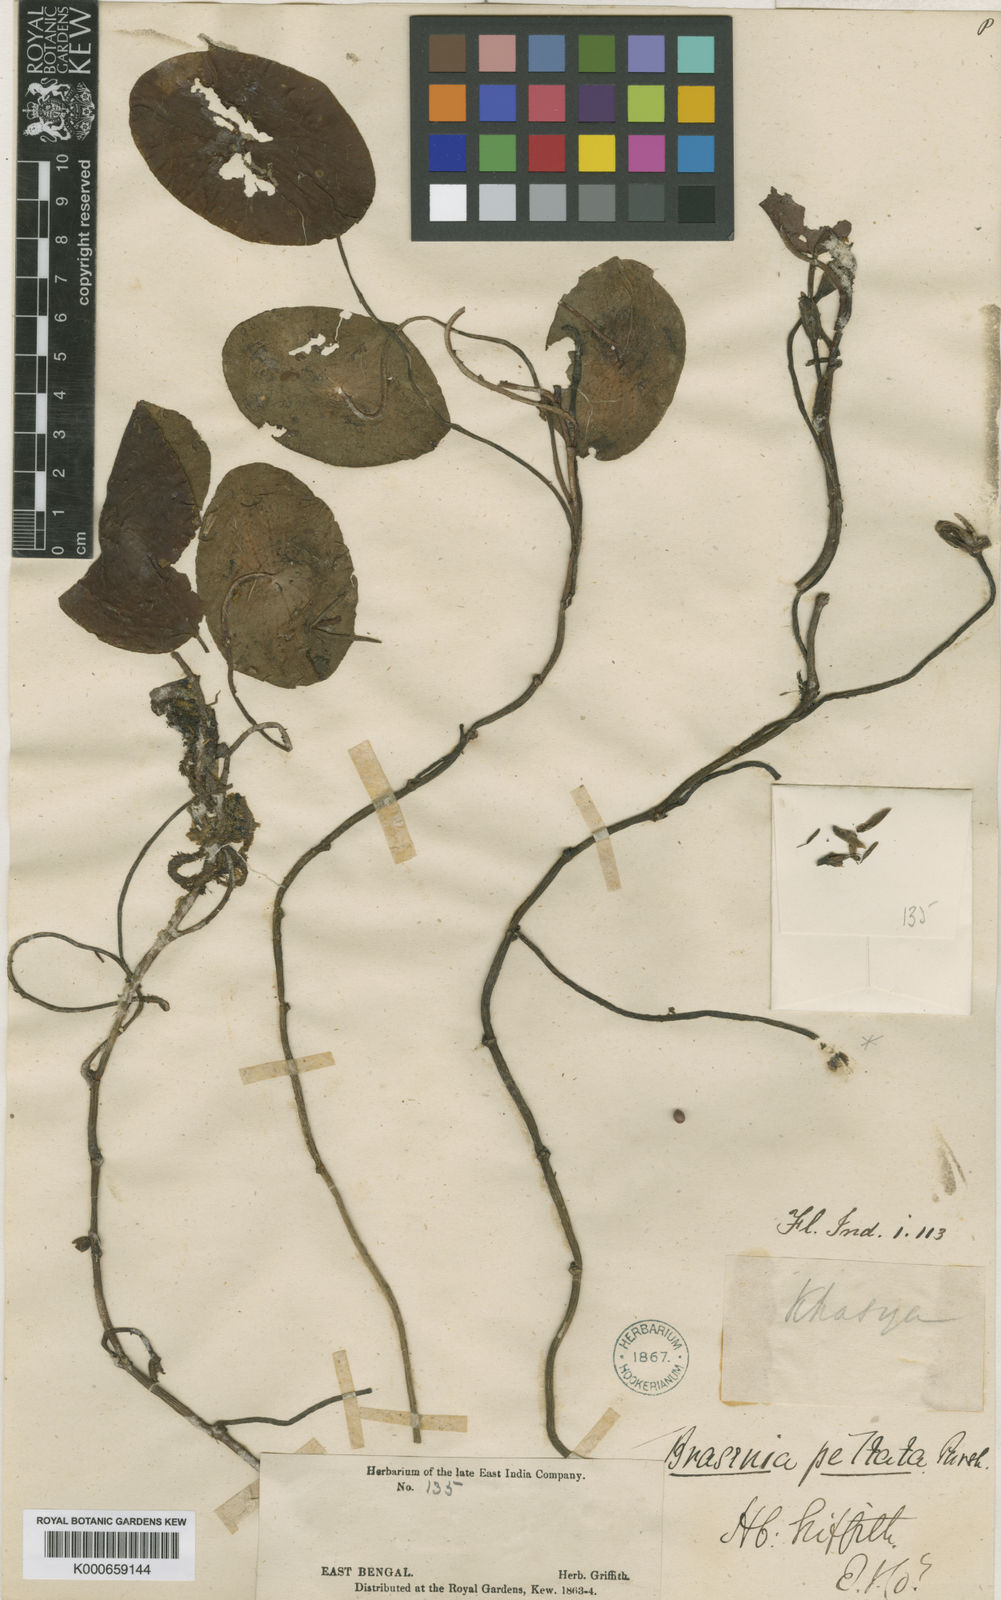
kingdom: Plantae
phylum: Tracheophyta
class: Magnoliopsida
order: Nymphaeales
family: Cabombaceae
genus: Brasenia
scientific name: Brasenia schreberi
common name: Water-shield
